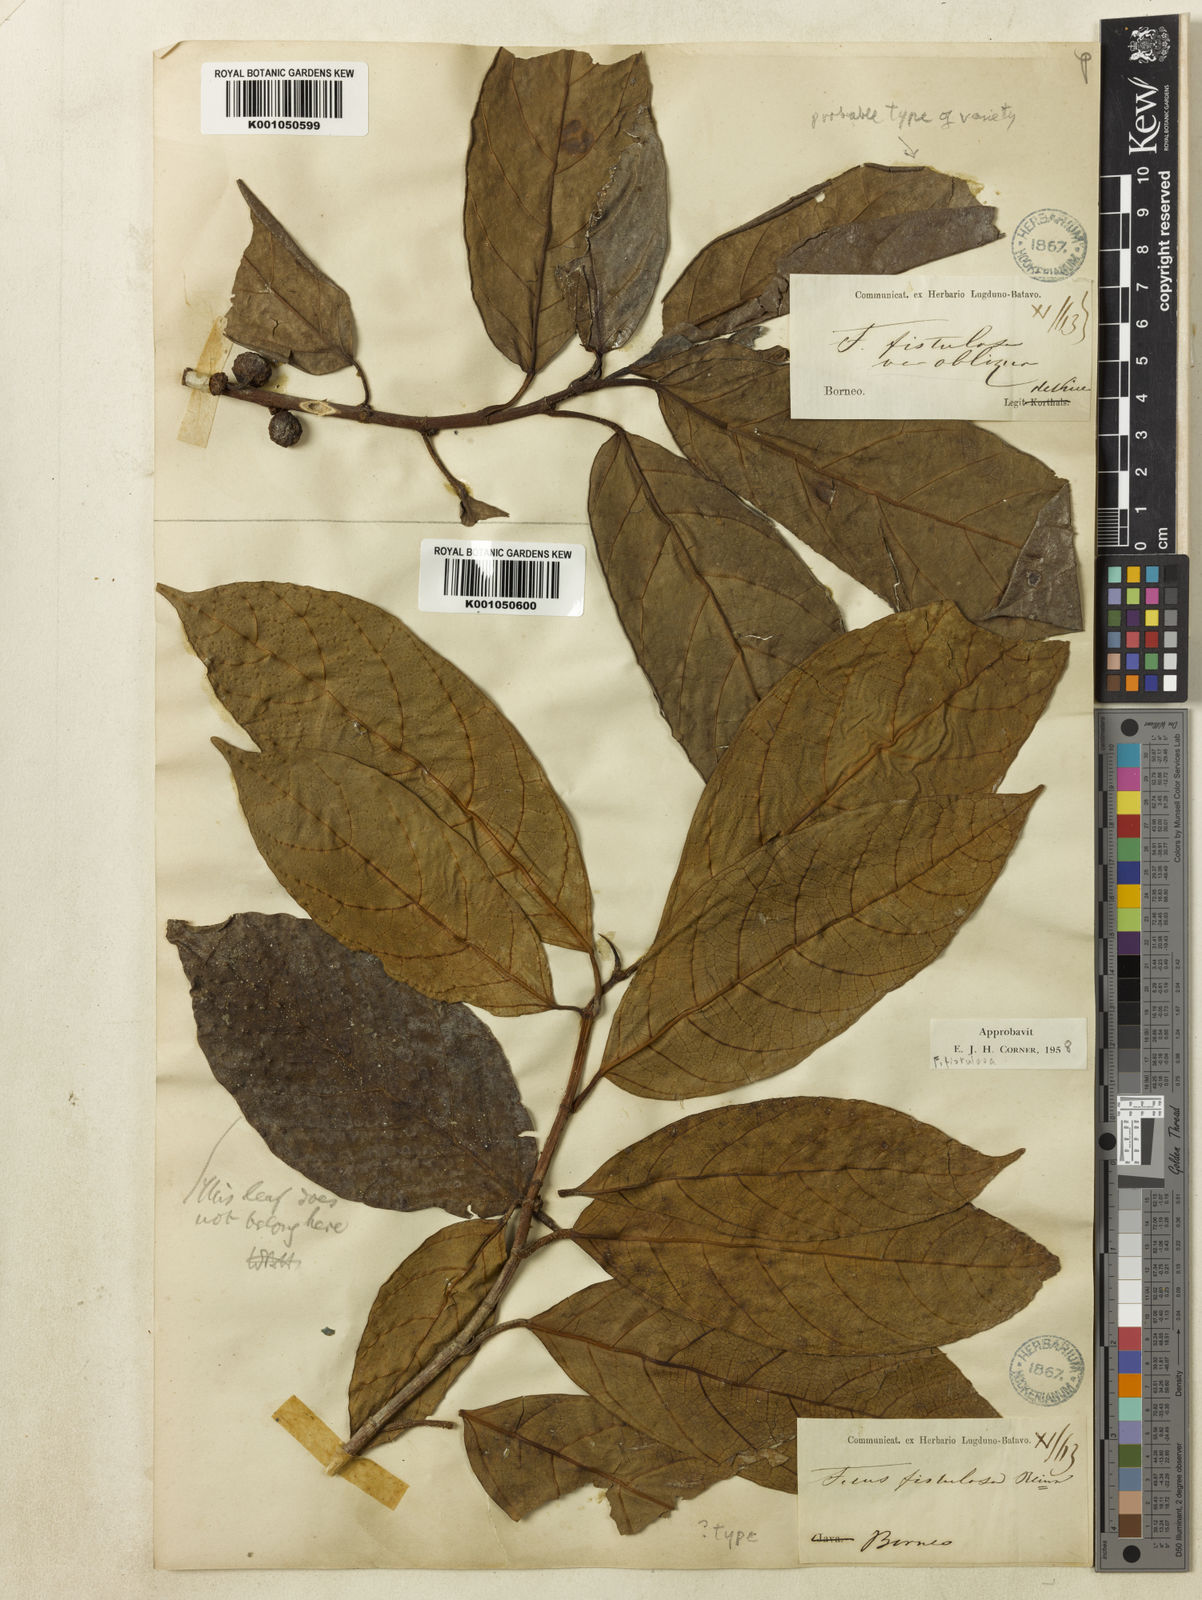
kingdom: Plantae
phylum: Tracheophyta
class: Magnoliopsida
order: Rosales
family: Moraceae
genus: Ficus
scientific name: Ficus fistulosa
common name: Figs
